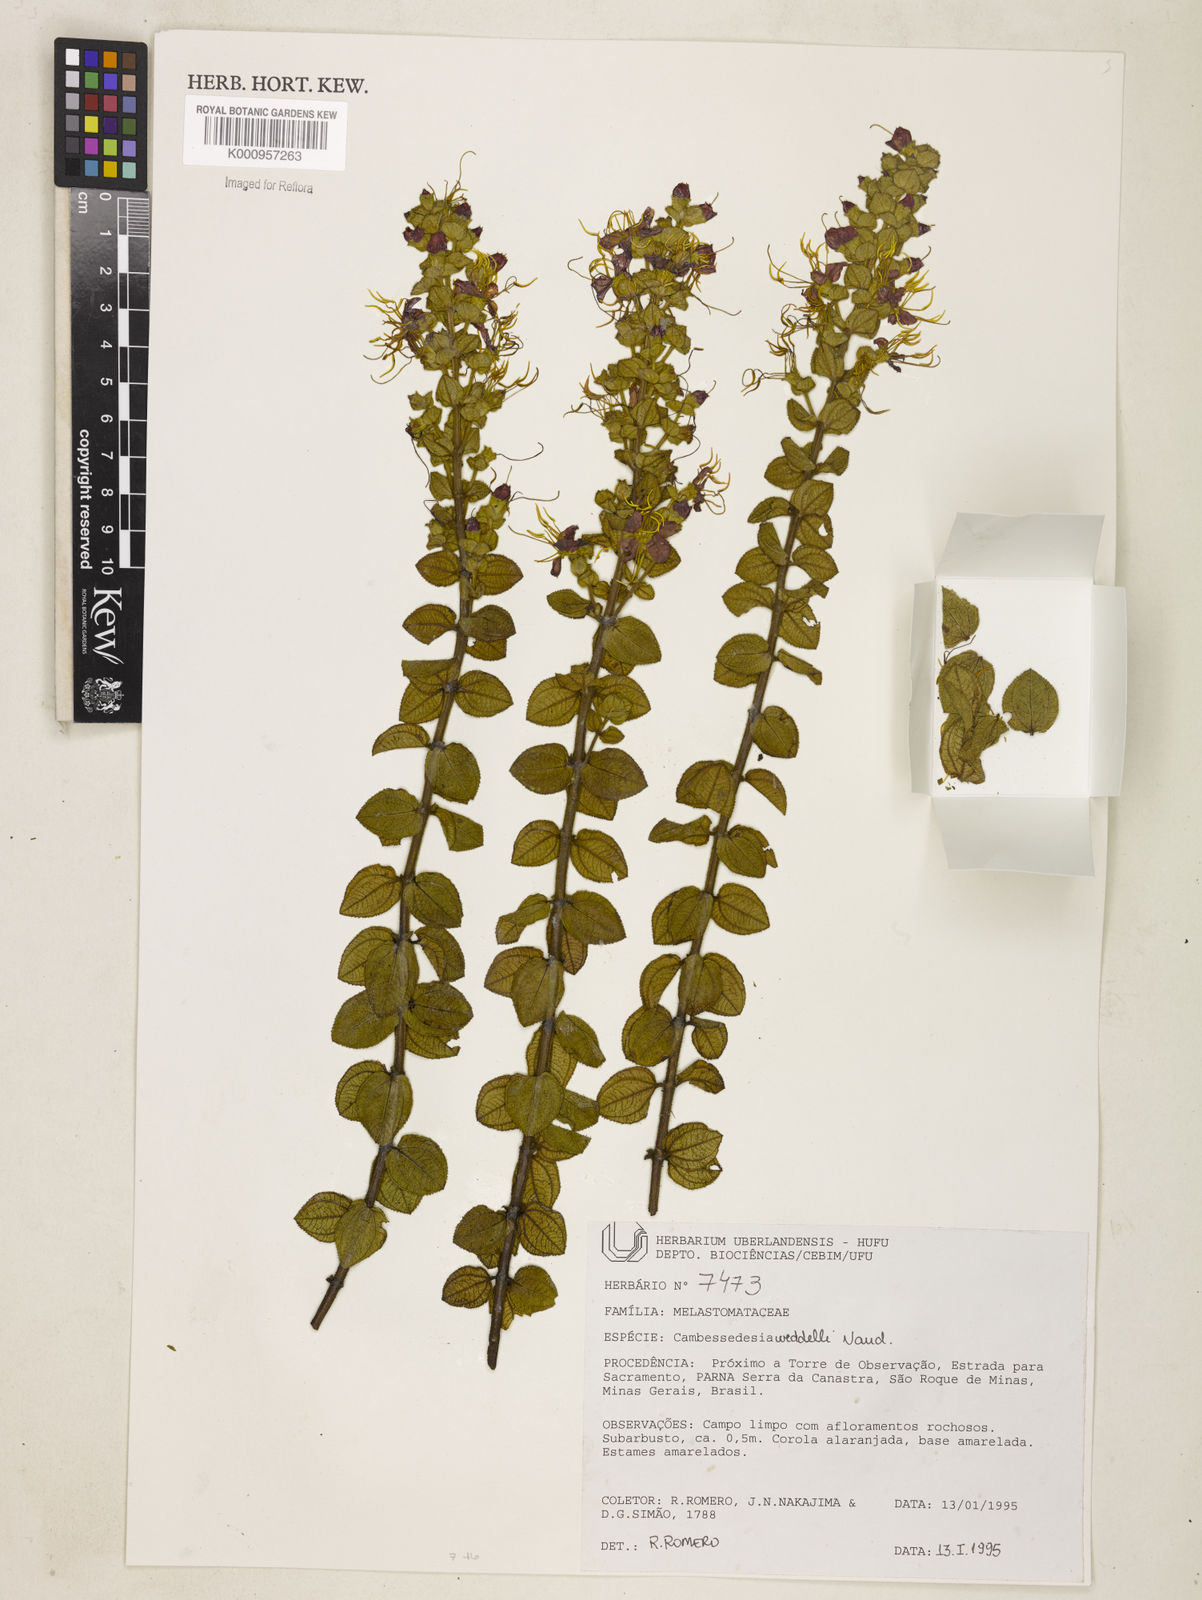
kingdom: Plantae
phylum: Tracheophyta
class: Magnoliopsida
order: Myrtales
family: Melastomataceae
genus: Cambessedesia
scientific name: Cambessedesia weddellii
